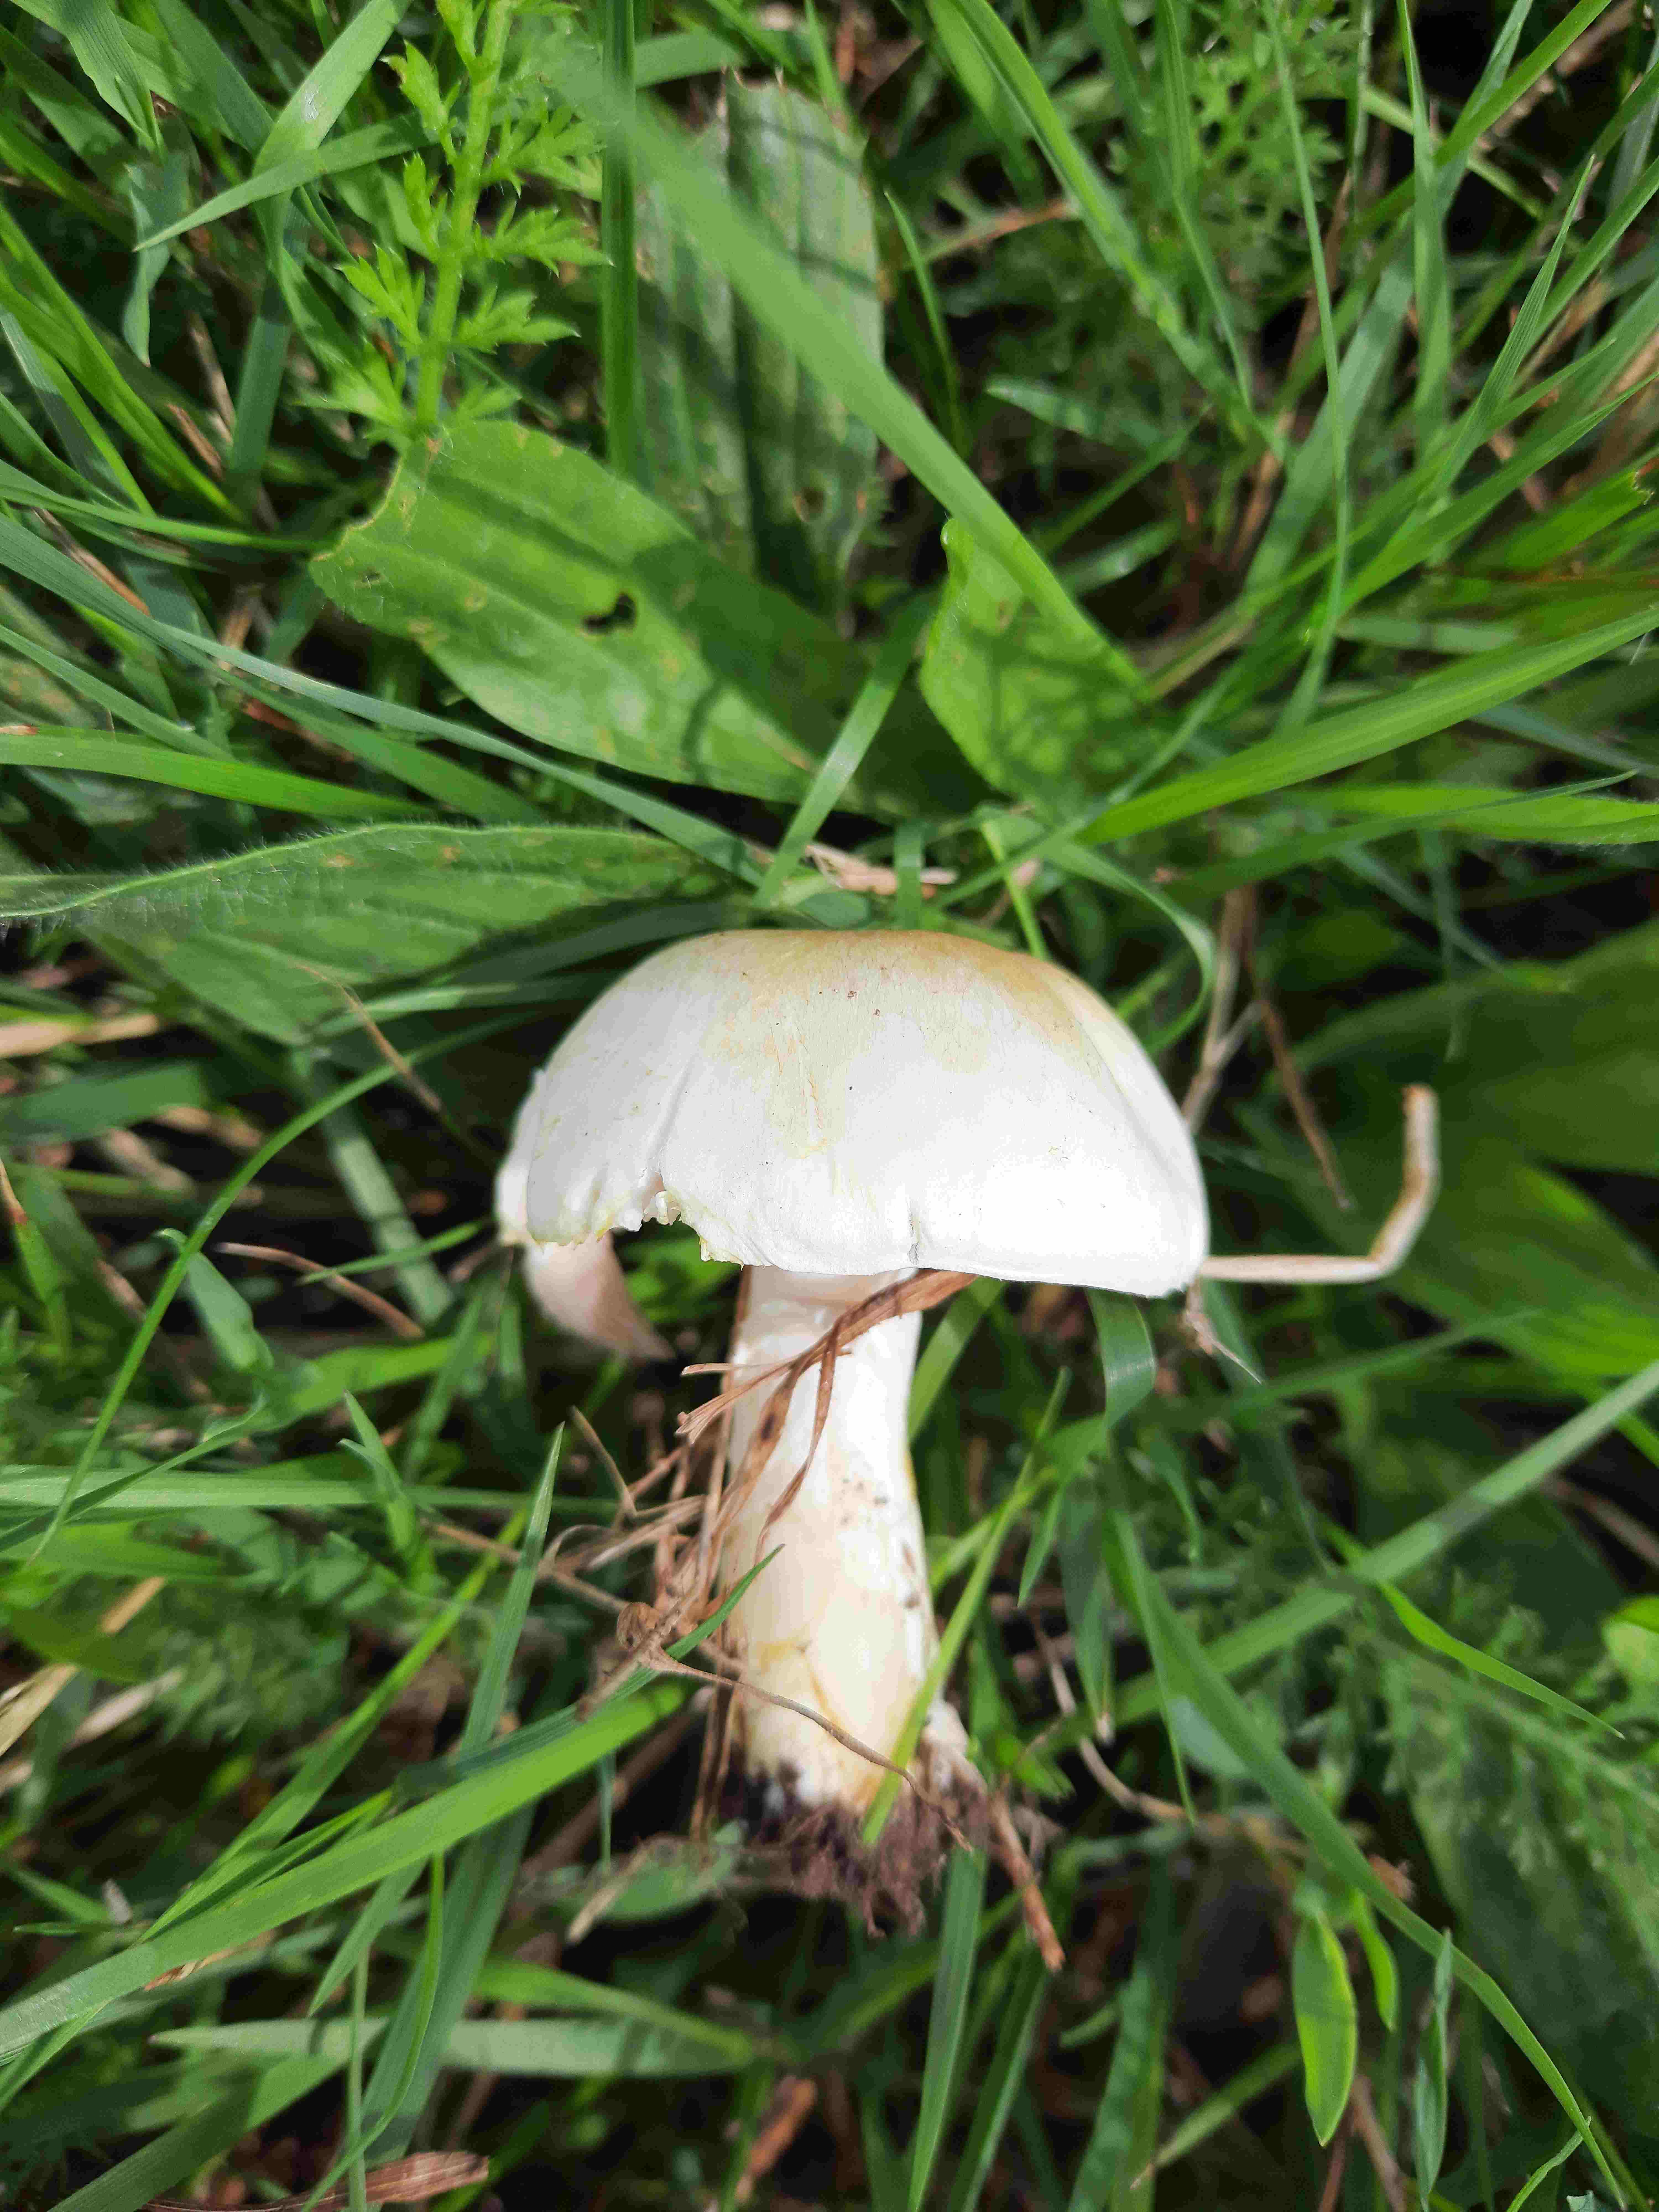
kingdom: Fungi
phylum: Basidiomycota
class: Agaricomycetes
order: Agaricales
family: Agaricaceae
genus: Agaricus
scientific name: Agaricus
